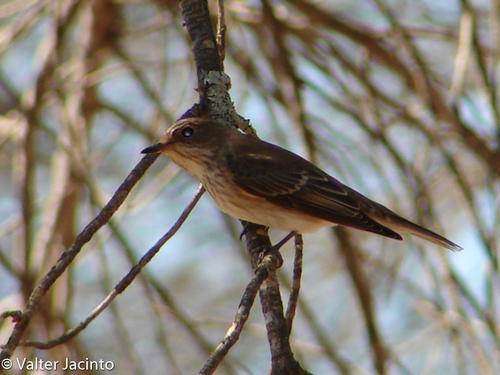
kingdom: Animalia
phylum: Chordata
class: Aves
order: Passeriformes
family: Muscicapidae
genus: Muscicapa
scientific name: Muscicapa striata
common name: Spotted flycatcher
